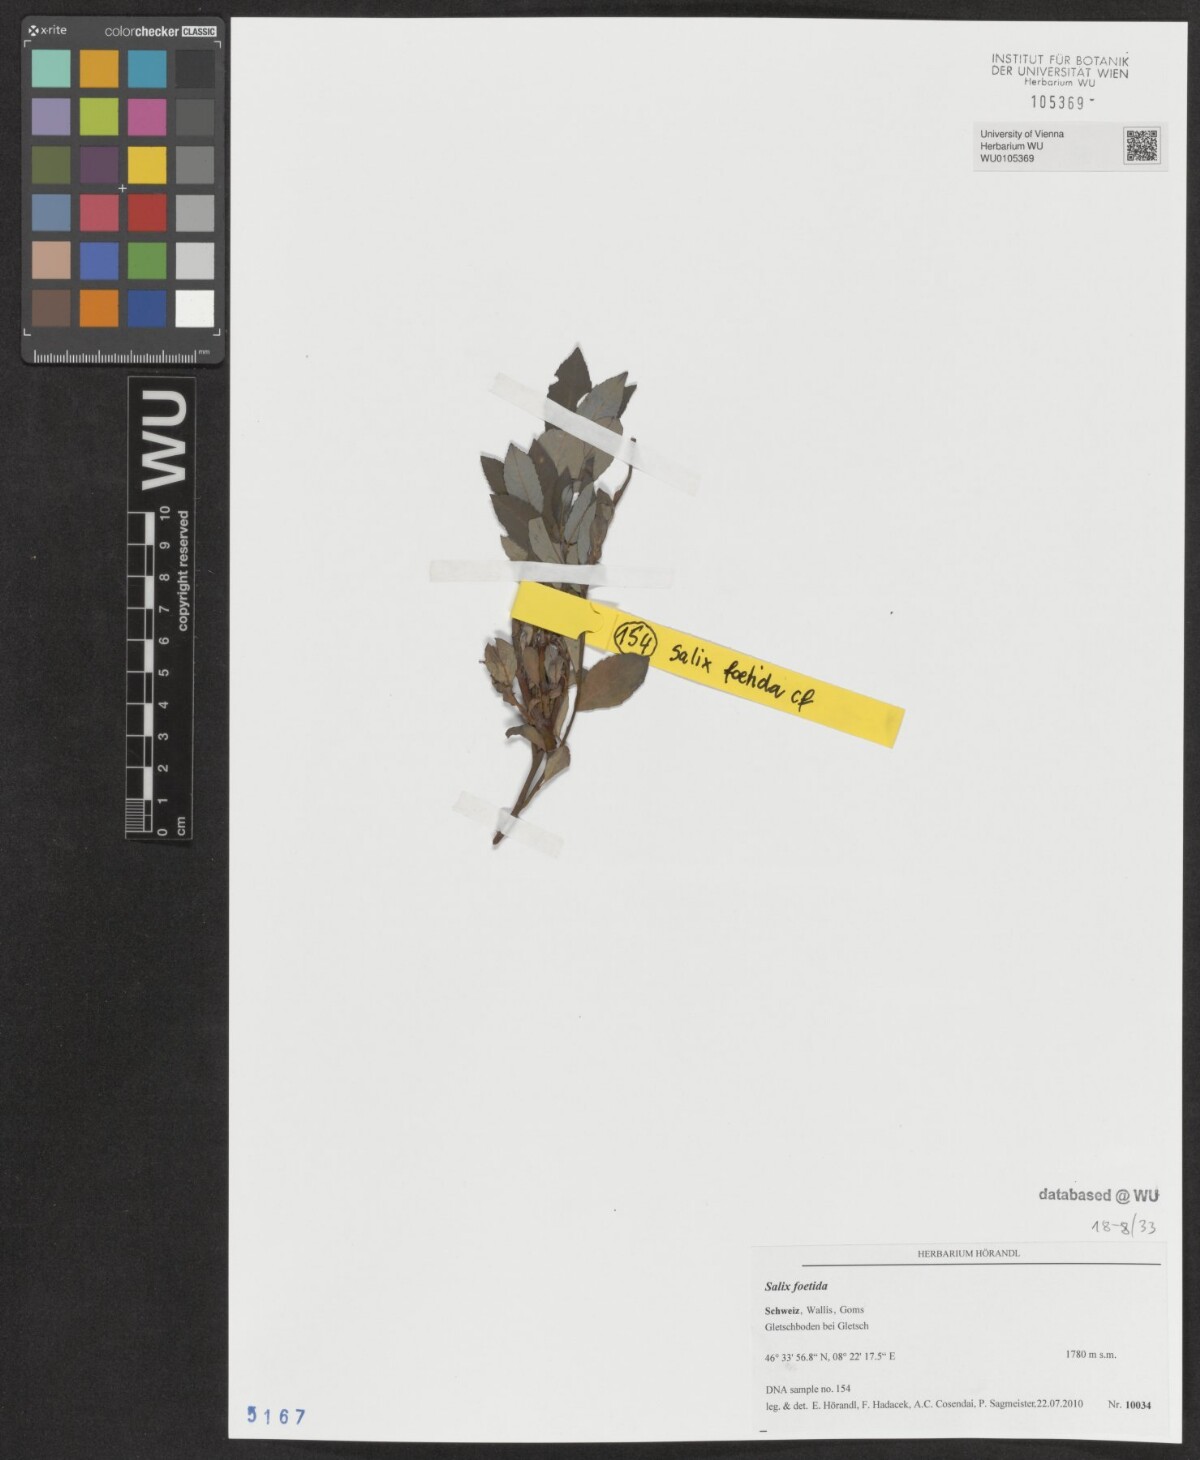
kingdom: Plantae
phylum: Tracheophyta
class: Magnoliopsida
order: Malpighiales
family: Salicaceae
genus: Salix
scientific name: Salix foetida
